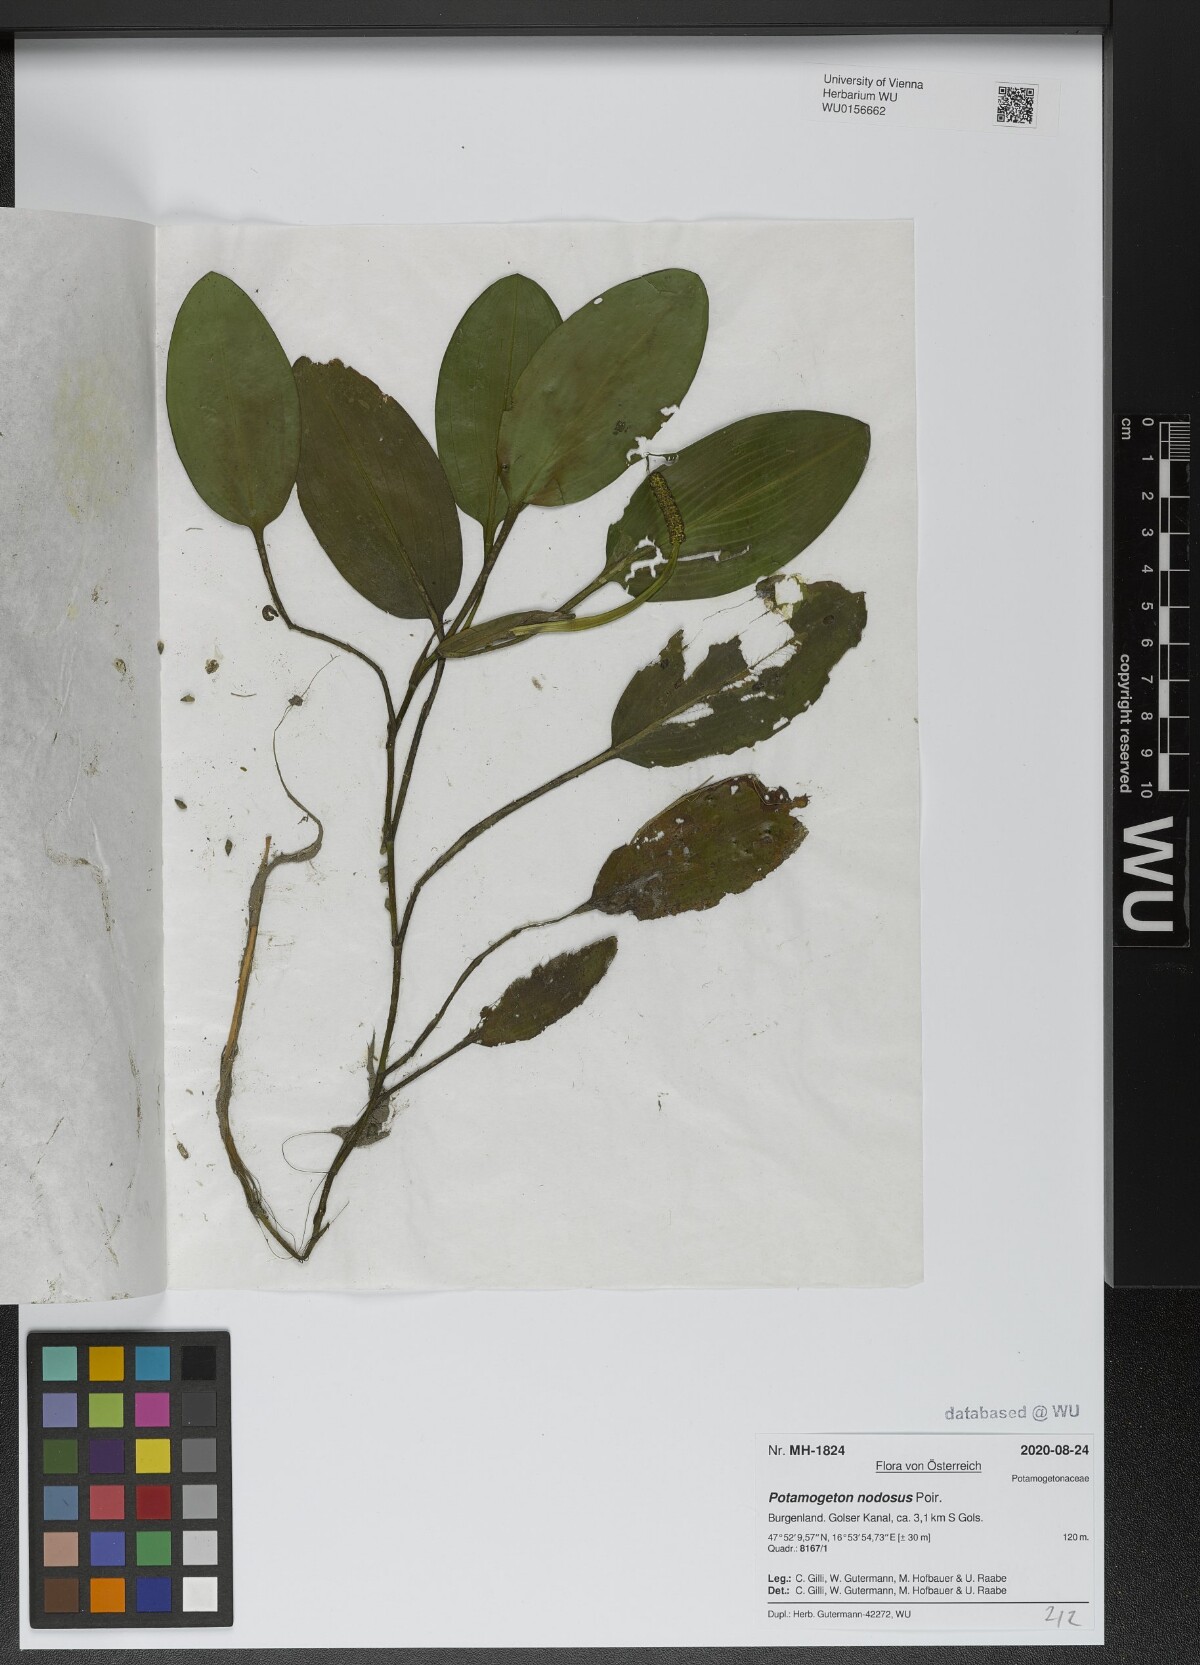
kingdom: Plantae
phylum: Tracheophyta
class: Liliopsida
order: Alismatales
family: Potamogetonaceae
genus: Potamogeton
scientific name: Potamogeton nodosus
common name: Loddon pondweed
